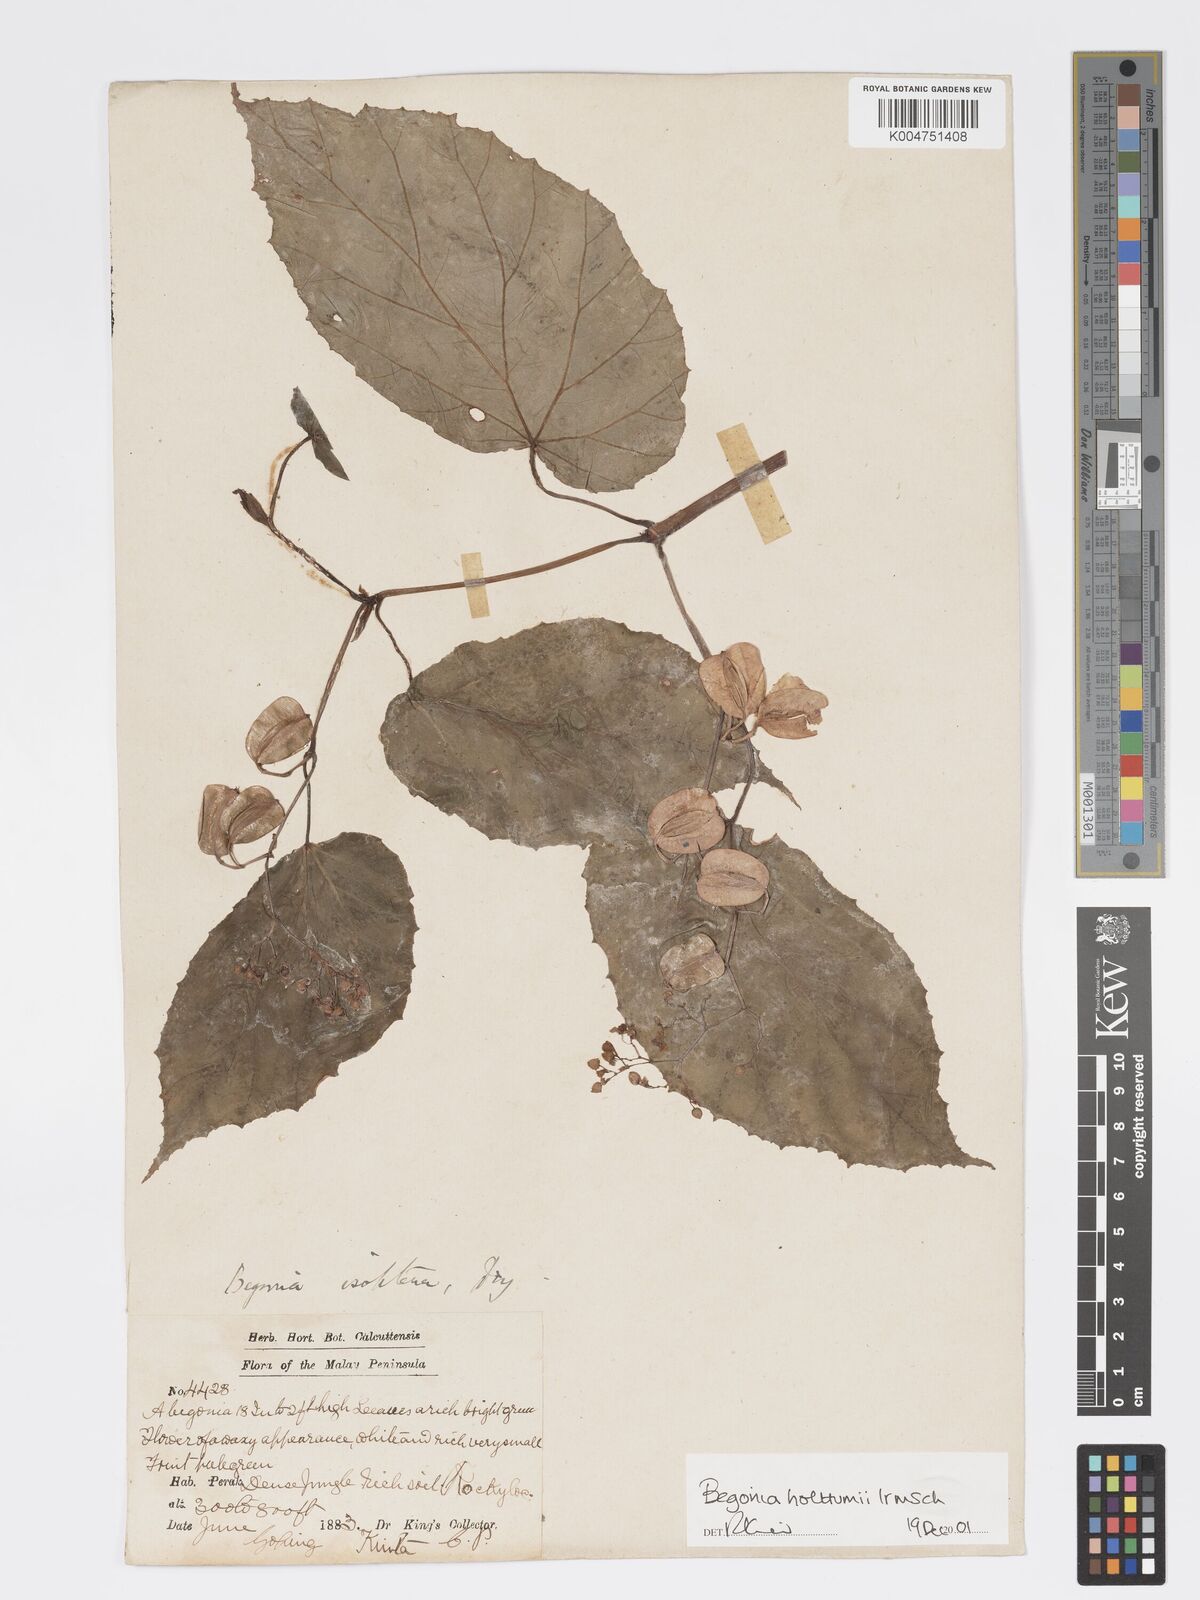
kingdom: Plantae
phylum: Tracheophyta
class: Magnoliopsida
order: Cucurbitales
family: Begoniaceae
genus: Begonia
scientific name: Begonia holttumii
